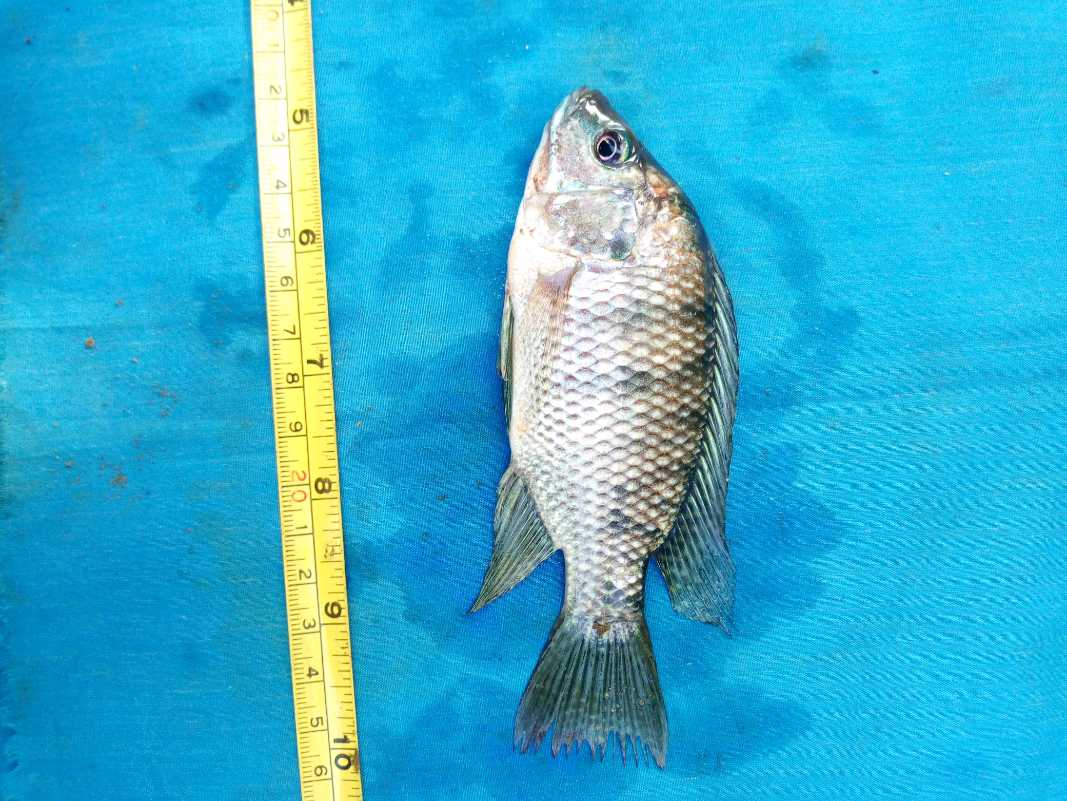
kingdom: Animalia
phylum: Chordata
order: Perciformes
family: Cichlidae
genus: Oreochromis
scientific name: Oreochromis spilurus
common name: Sabaki tilapia
